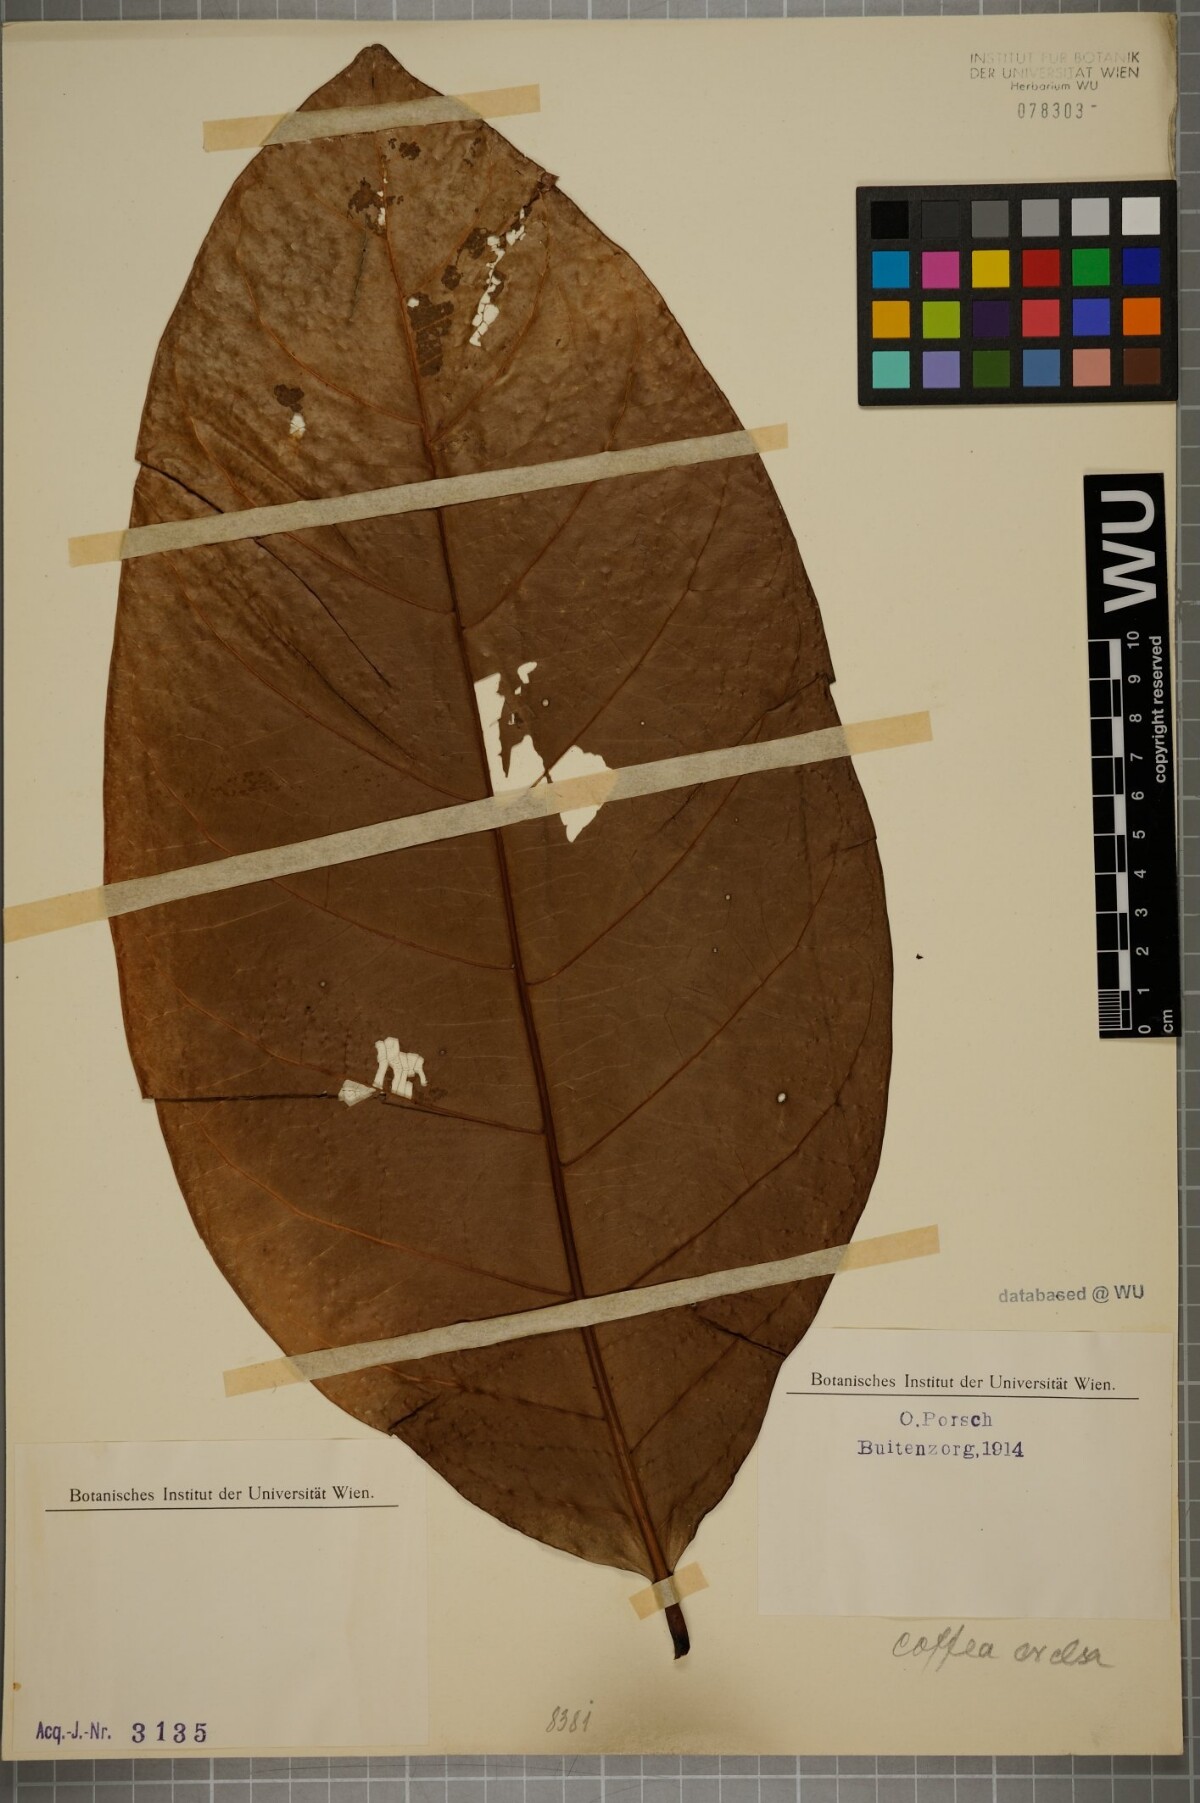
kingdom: Plantae
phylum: Tracheophyta
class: Magnoliopsida
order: Gentianales
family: Rubiaceae
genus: Coffea
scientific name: Coffea liberica
